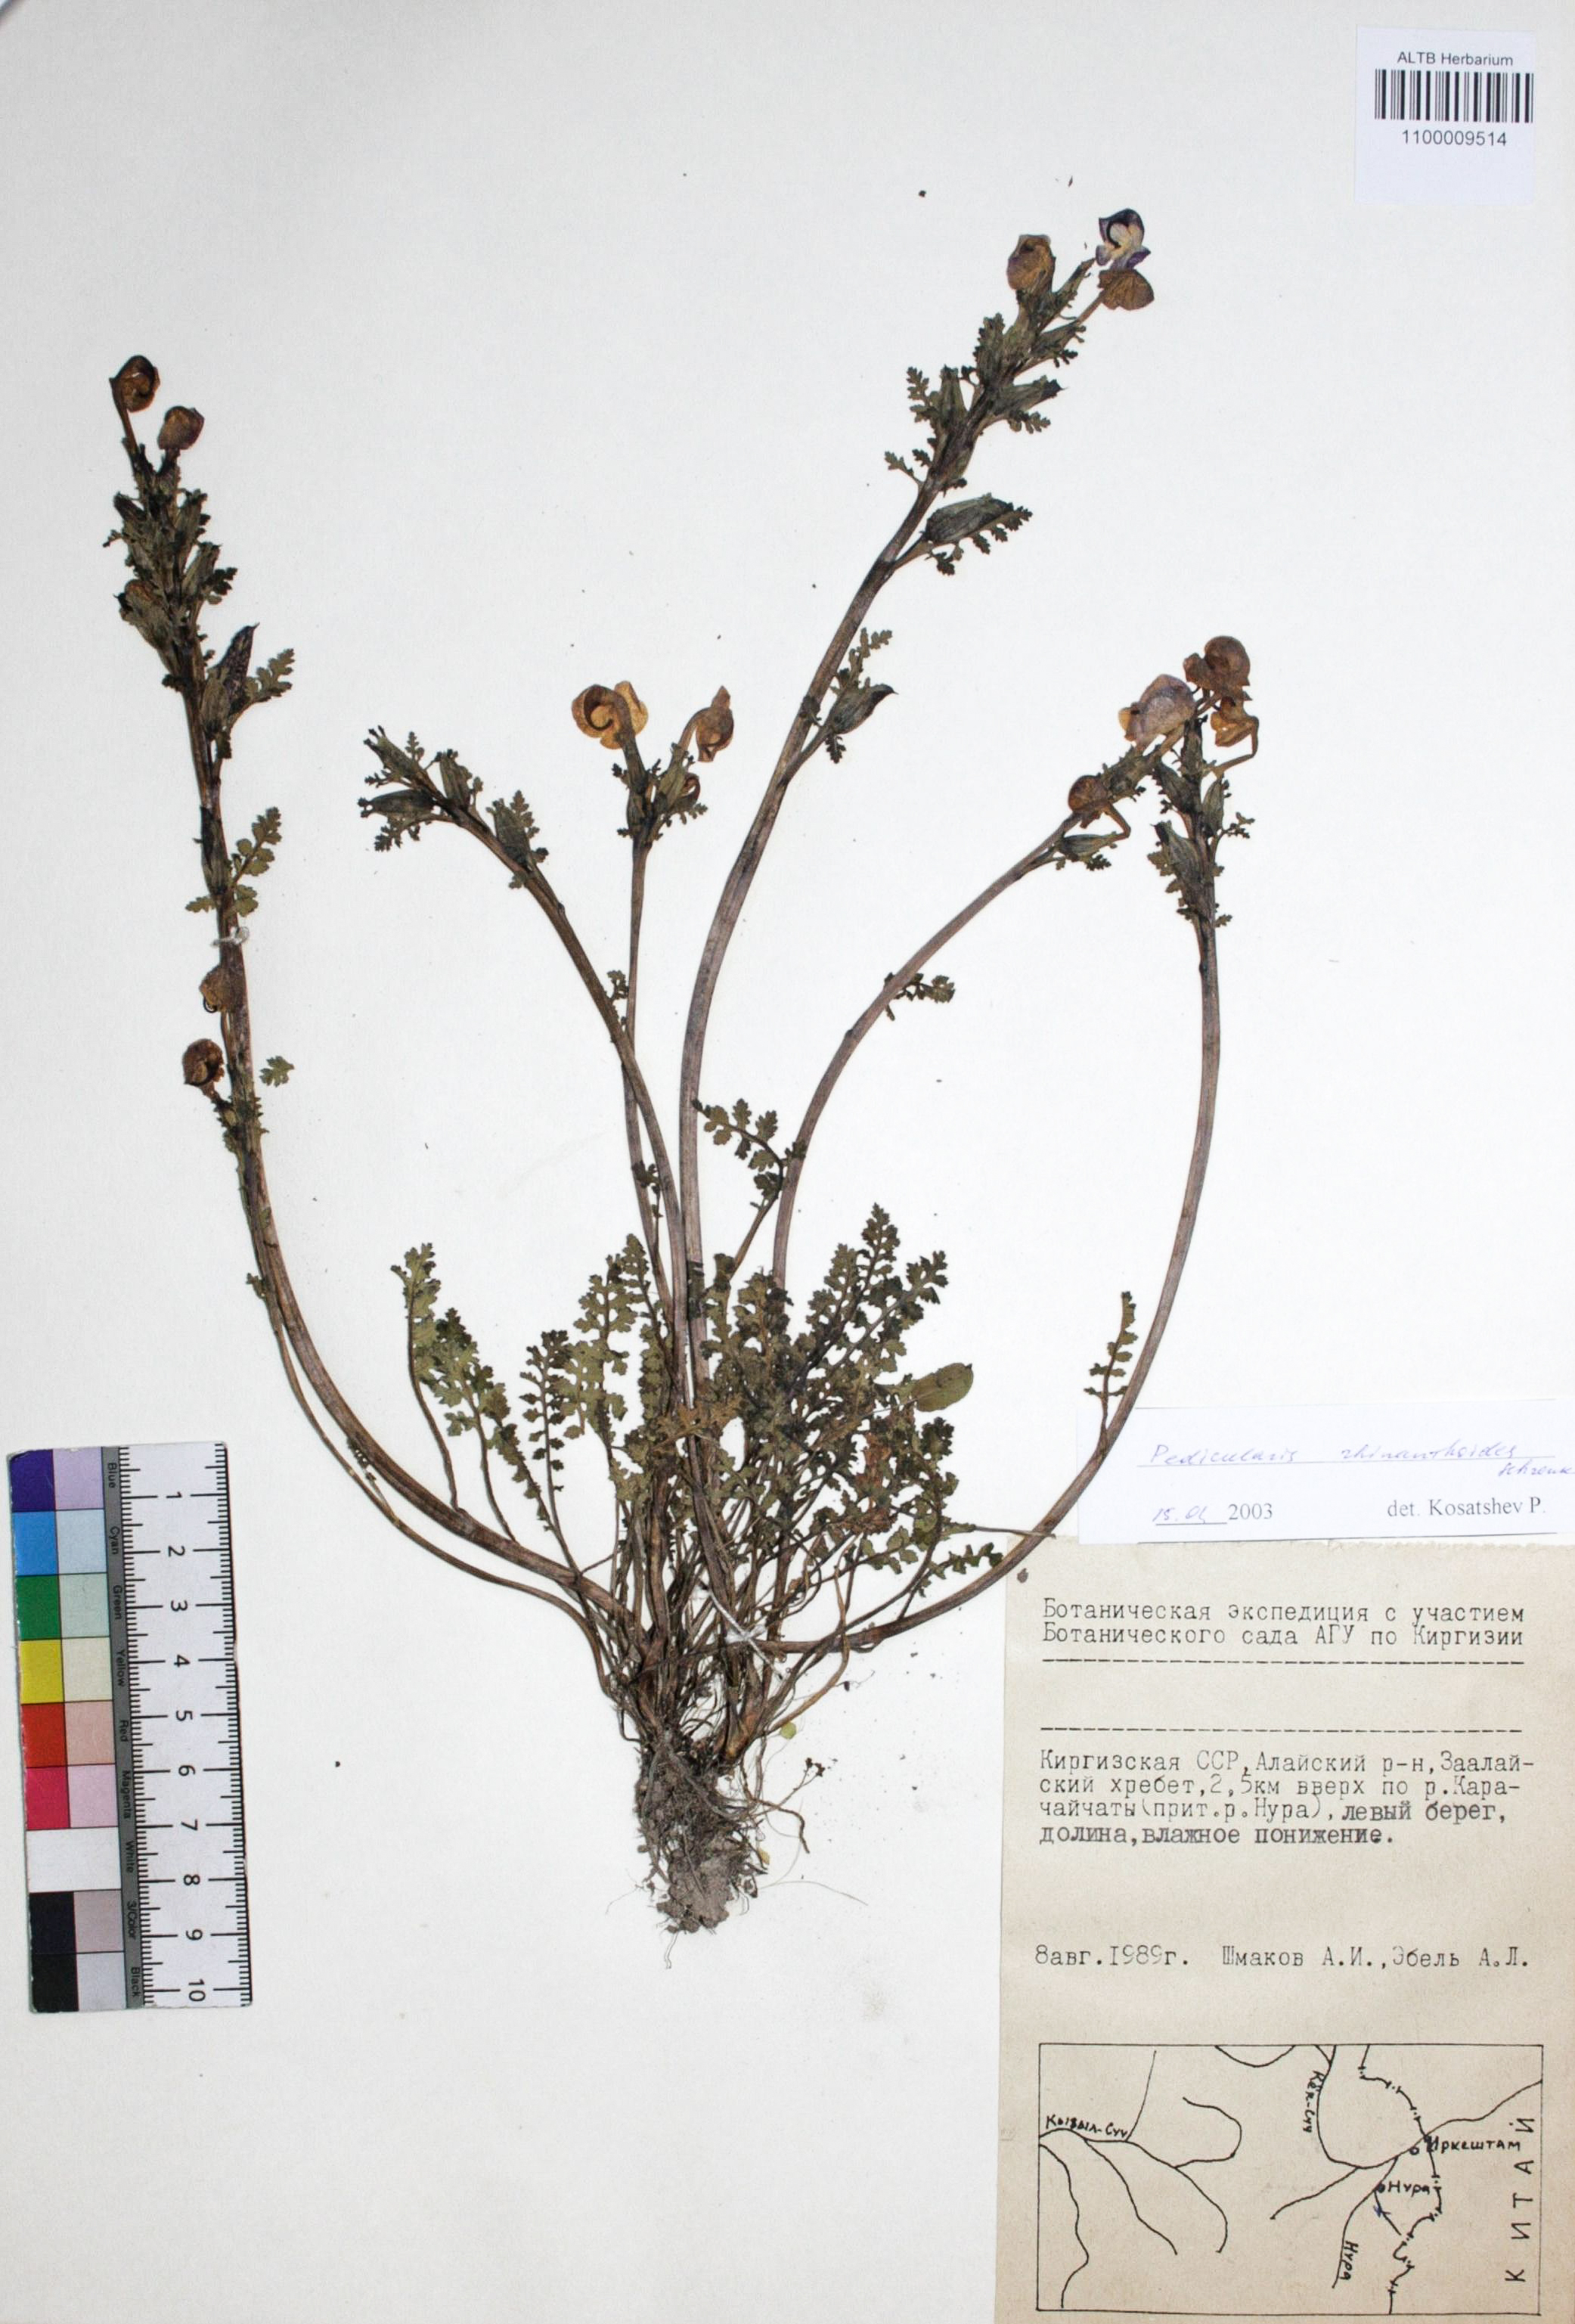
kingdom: Plantae
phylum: Tracheophyta
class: Magnoliopsida
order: Lamiales
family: Orobanchaceae
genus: Pedicularis
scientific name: Pedicularis sibirica
